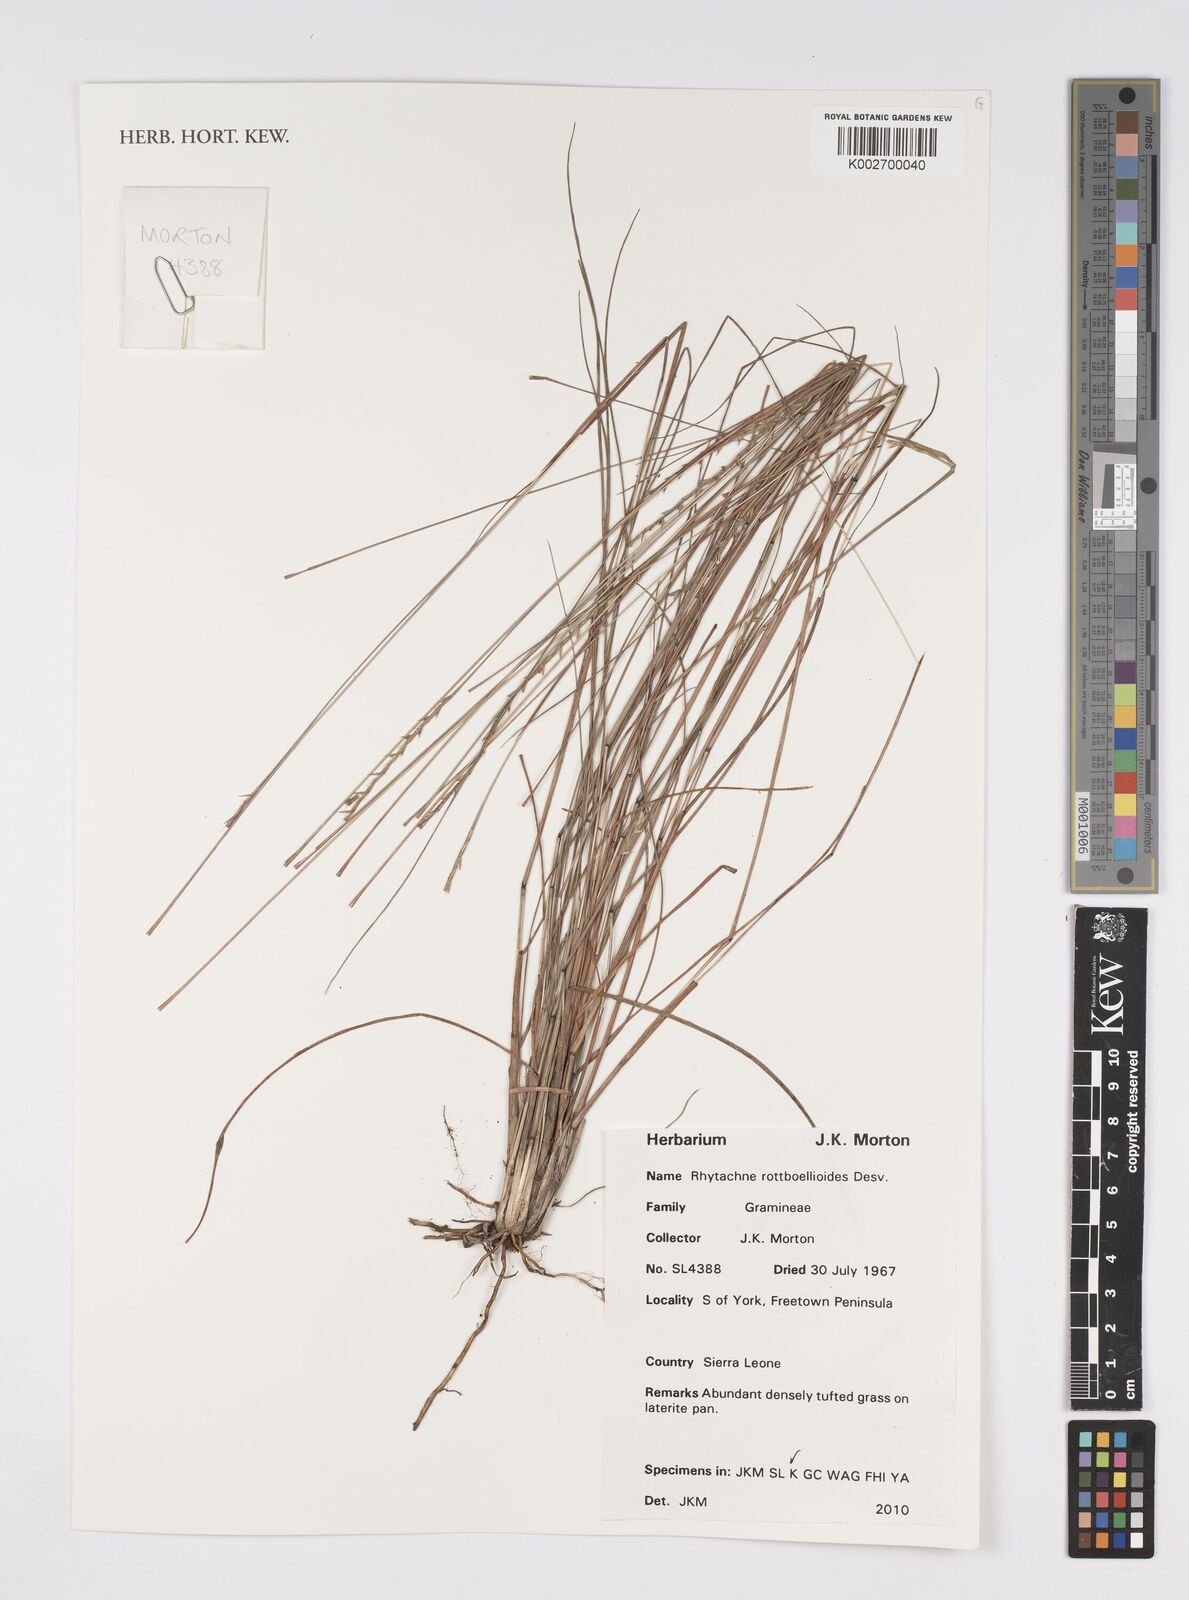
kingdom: Plantae
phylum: Tracheophyta
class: Liliopsida
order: Poales
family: Poaceae
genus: Rhytachne
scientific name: Rhytachne rottboellioides
